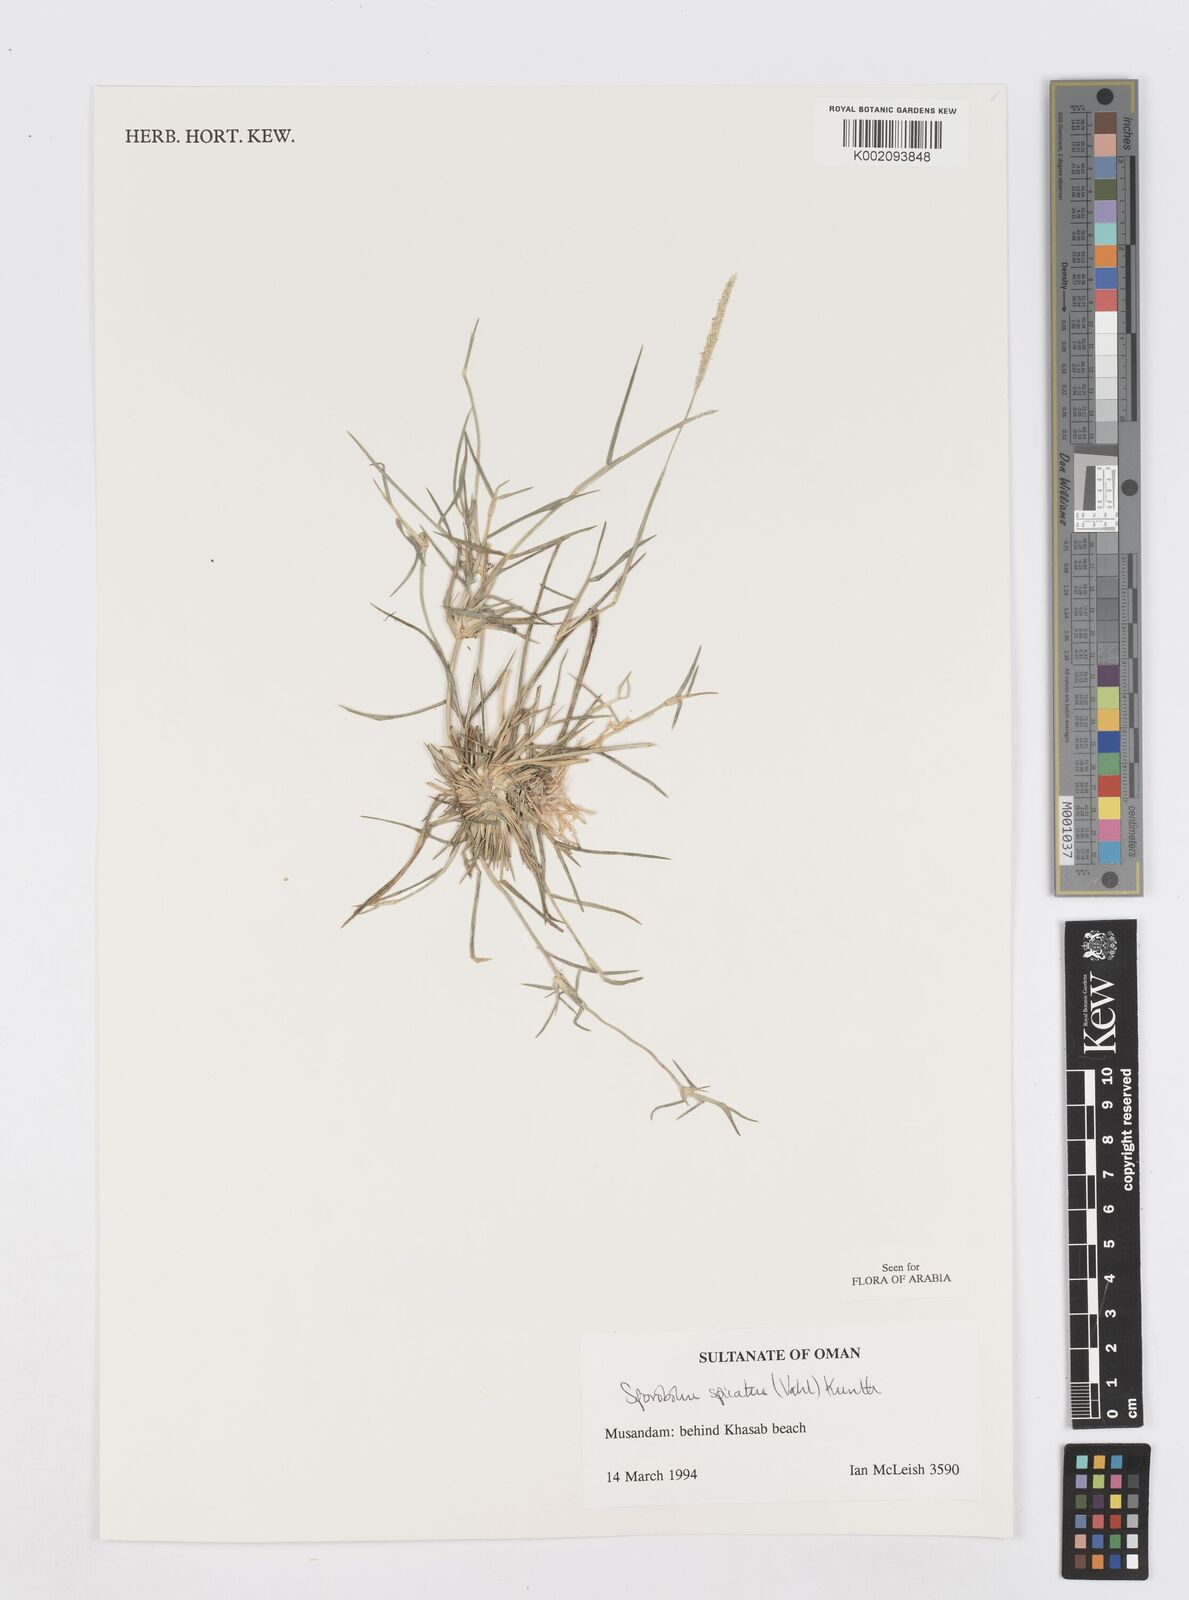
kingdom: Plantae
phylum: Tracheophyta
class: Liliopsida
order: Poales
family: Poaceae
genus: Sporobolus
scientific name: Sporobolus spicatus
